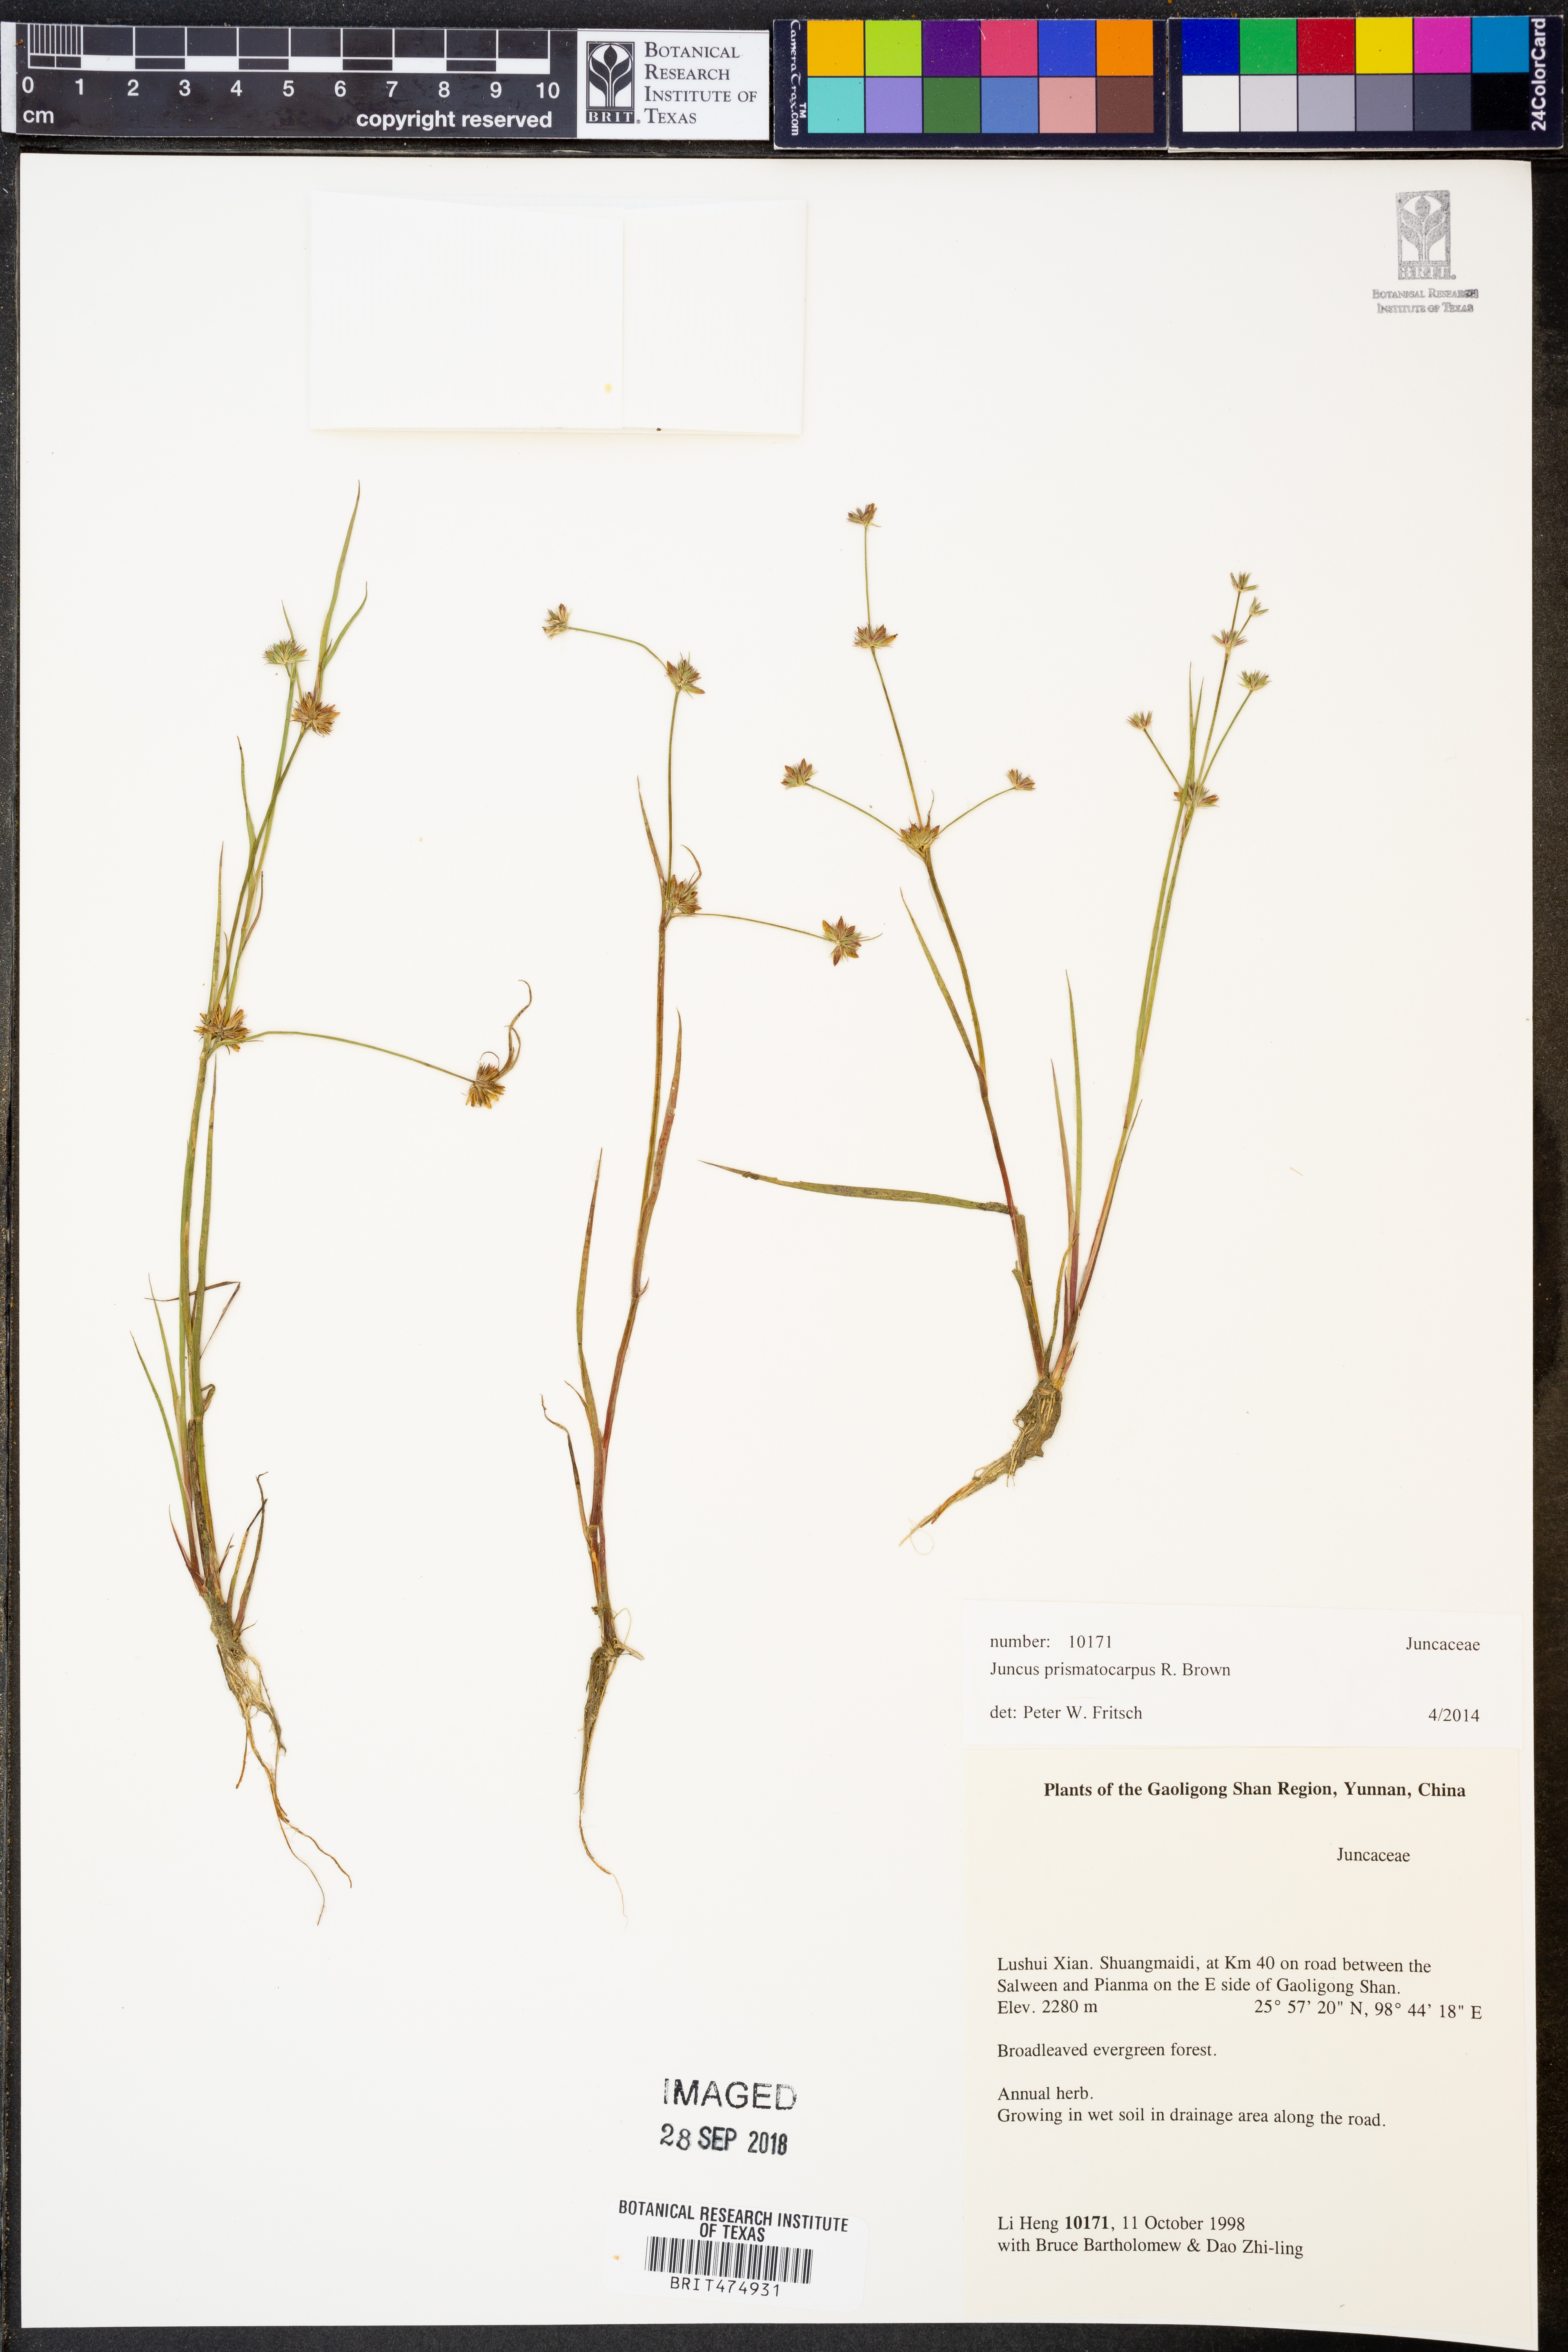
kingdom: Plantae
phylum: Tracheophyta
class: Liliopsida
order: Poales
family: Juncaceae
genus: Juncus
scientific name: Juncus prismatocarpus
